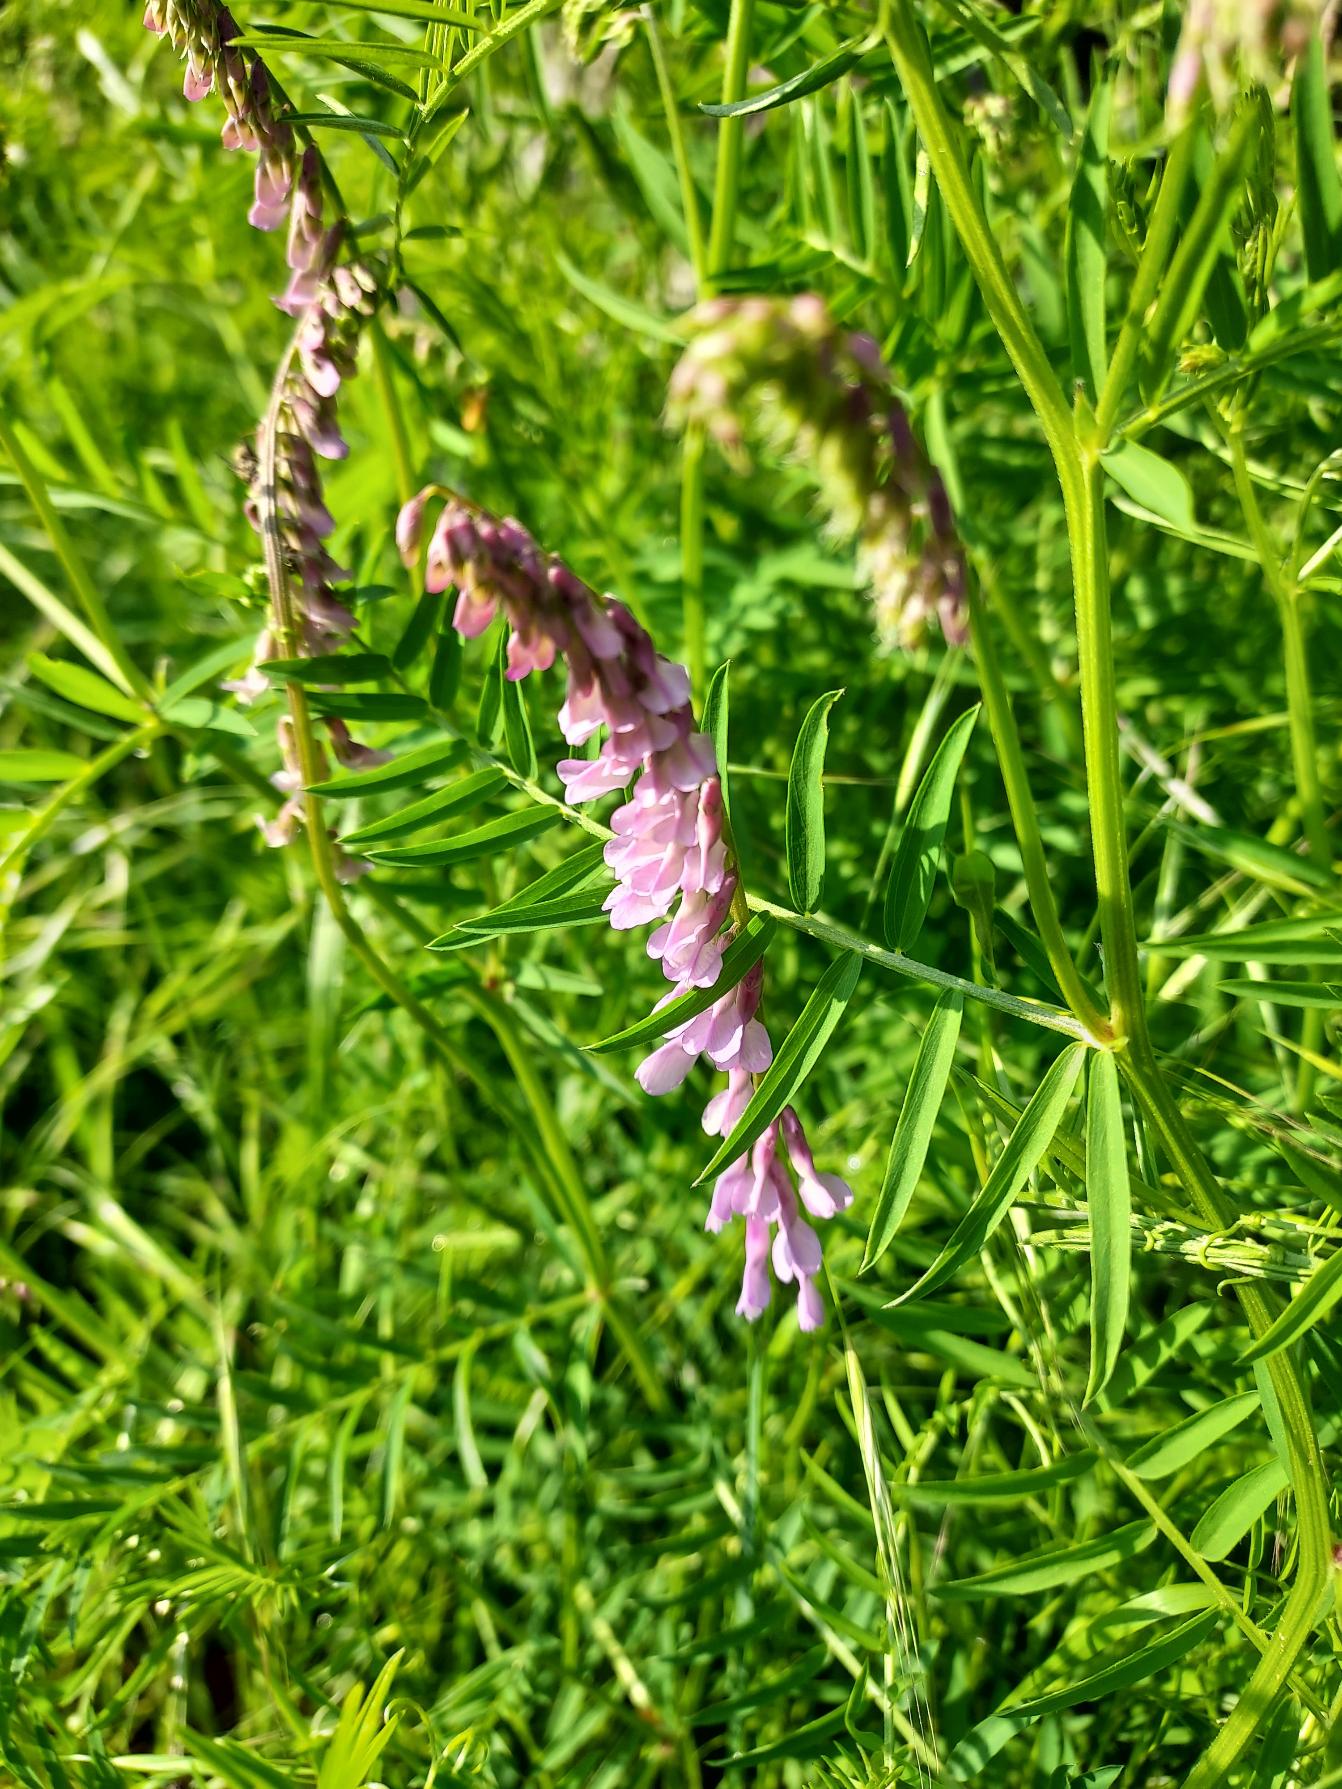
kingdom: Plantae
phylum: Tracheophyta
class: Magnoliopsida
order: Fabales
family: Fabaceae
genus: Vicia
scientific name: Vicia tenuifolia
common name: Langklaset vikke
